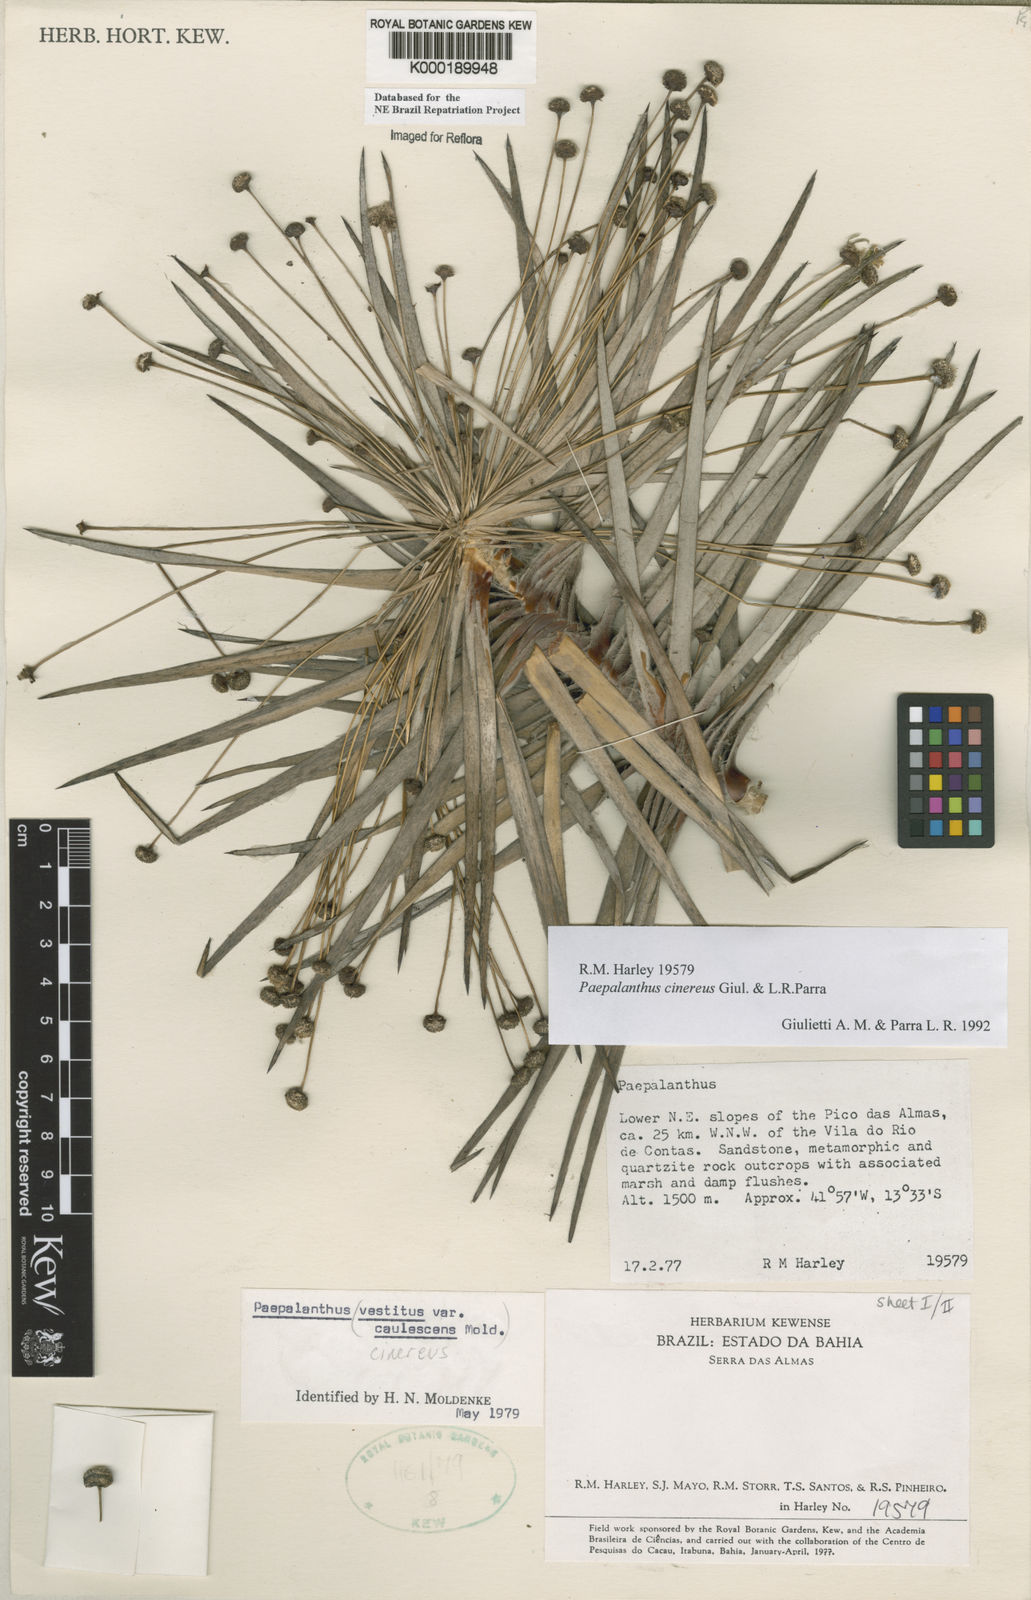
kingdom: Plantae
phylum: Tracheophyta
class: Liliopsida
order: Poales
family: Eriocaulaceae
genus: Paepalanthus
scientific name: Paepalanthus cinereus
